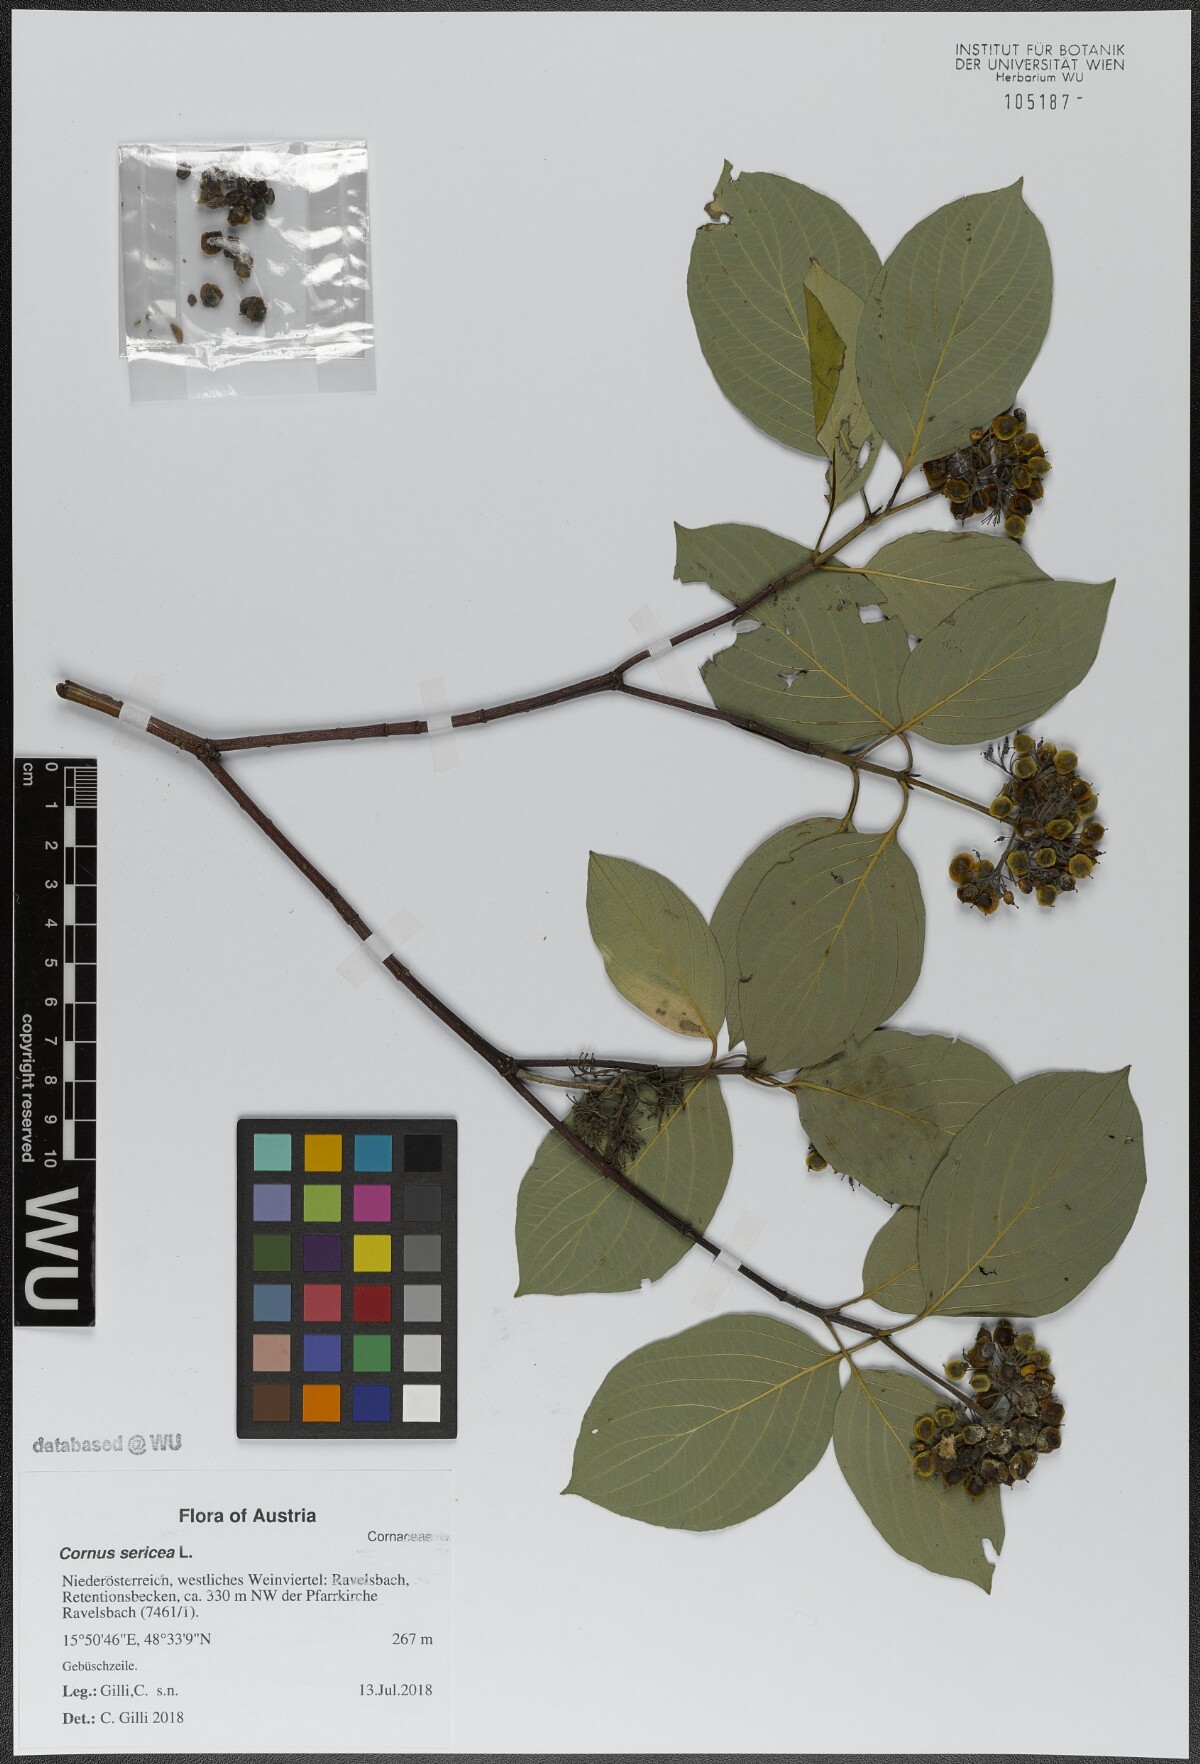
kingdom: Plantae
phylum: Tracheophyta
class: Magnoliopsida
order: Cornales
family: Cornaceae
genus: Cornus
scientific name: Cornus sericea
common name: Red-osier dogwood
